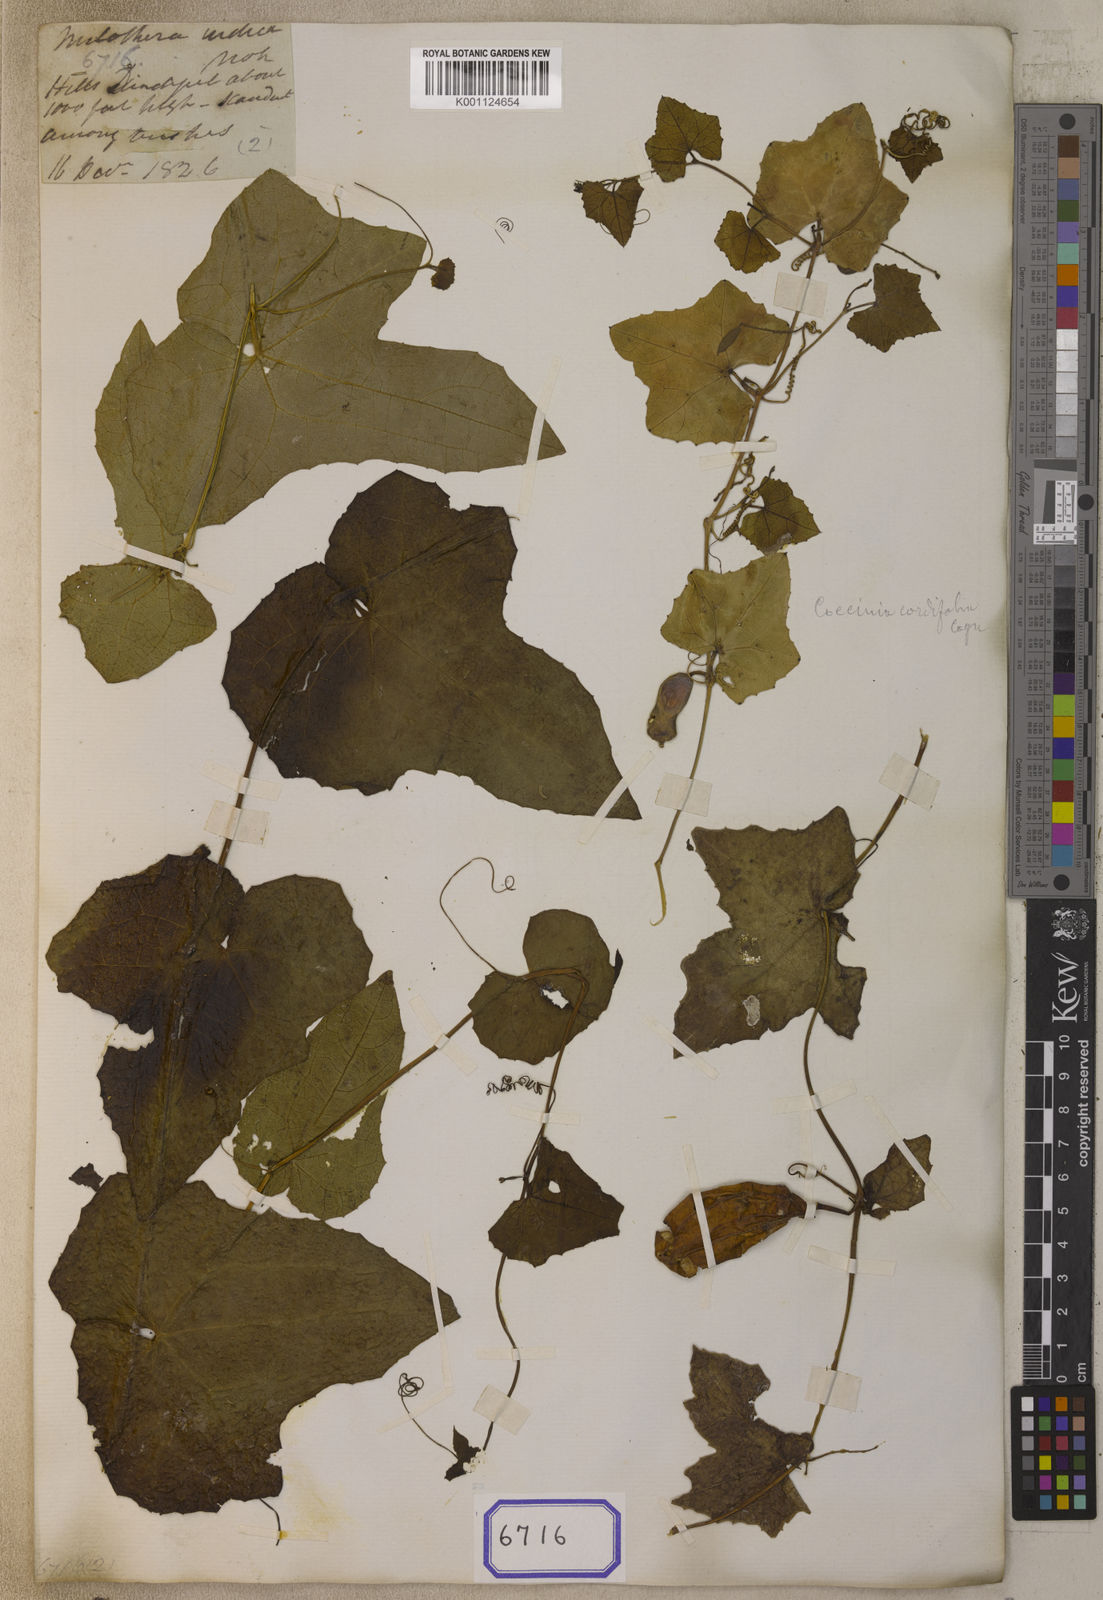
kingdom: Plantae
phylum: Tracheophyta
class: Magnoliopsida
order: Cucurbitales
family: Cucurbitaceae
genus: Coccinia
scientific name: Coccinia grandis
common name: Ivy gourd
